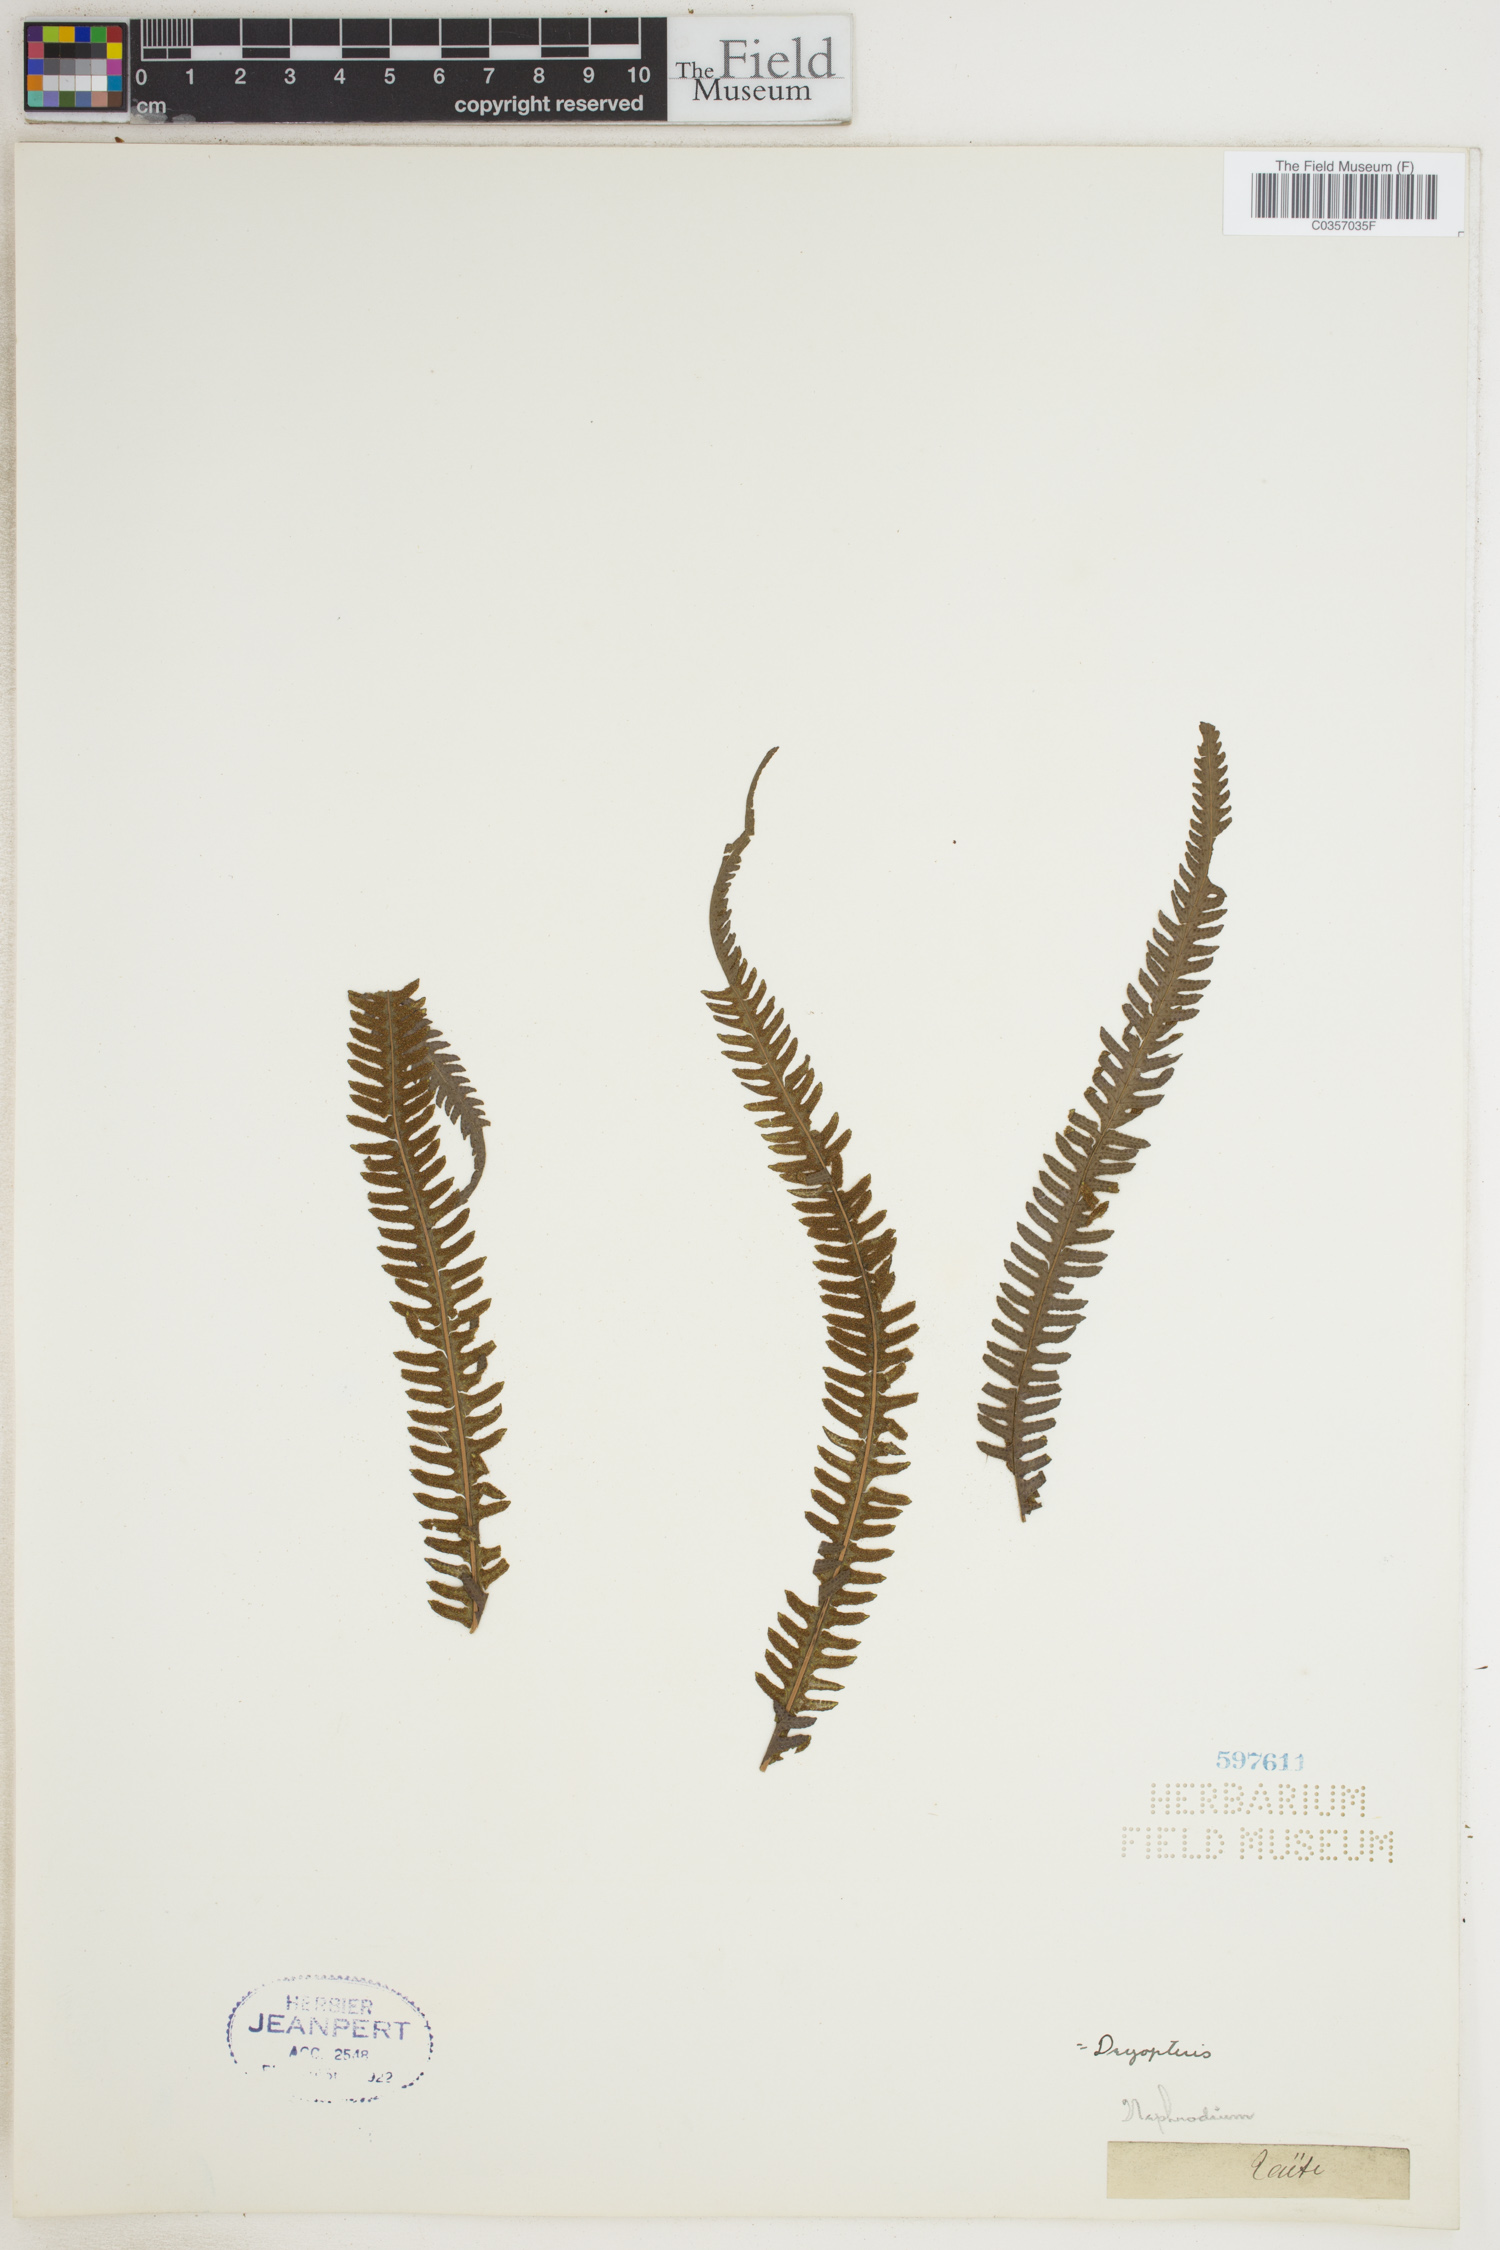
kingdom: Plantae
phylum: Tracheophyta
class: Polypodiopsida
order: Polypodiales
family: Dryopteridaceae
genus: Dryopteris
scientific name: Dryopteris
